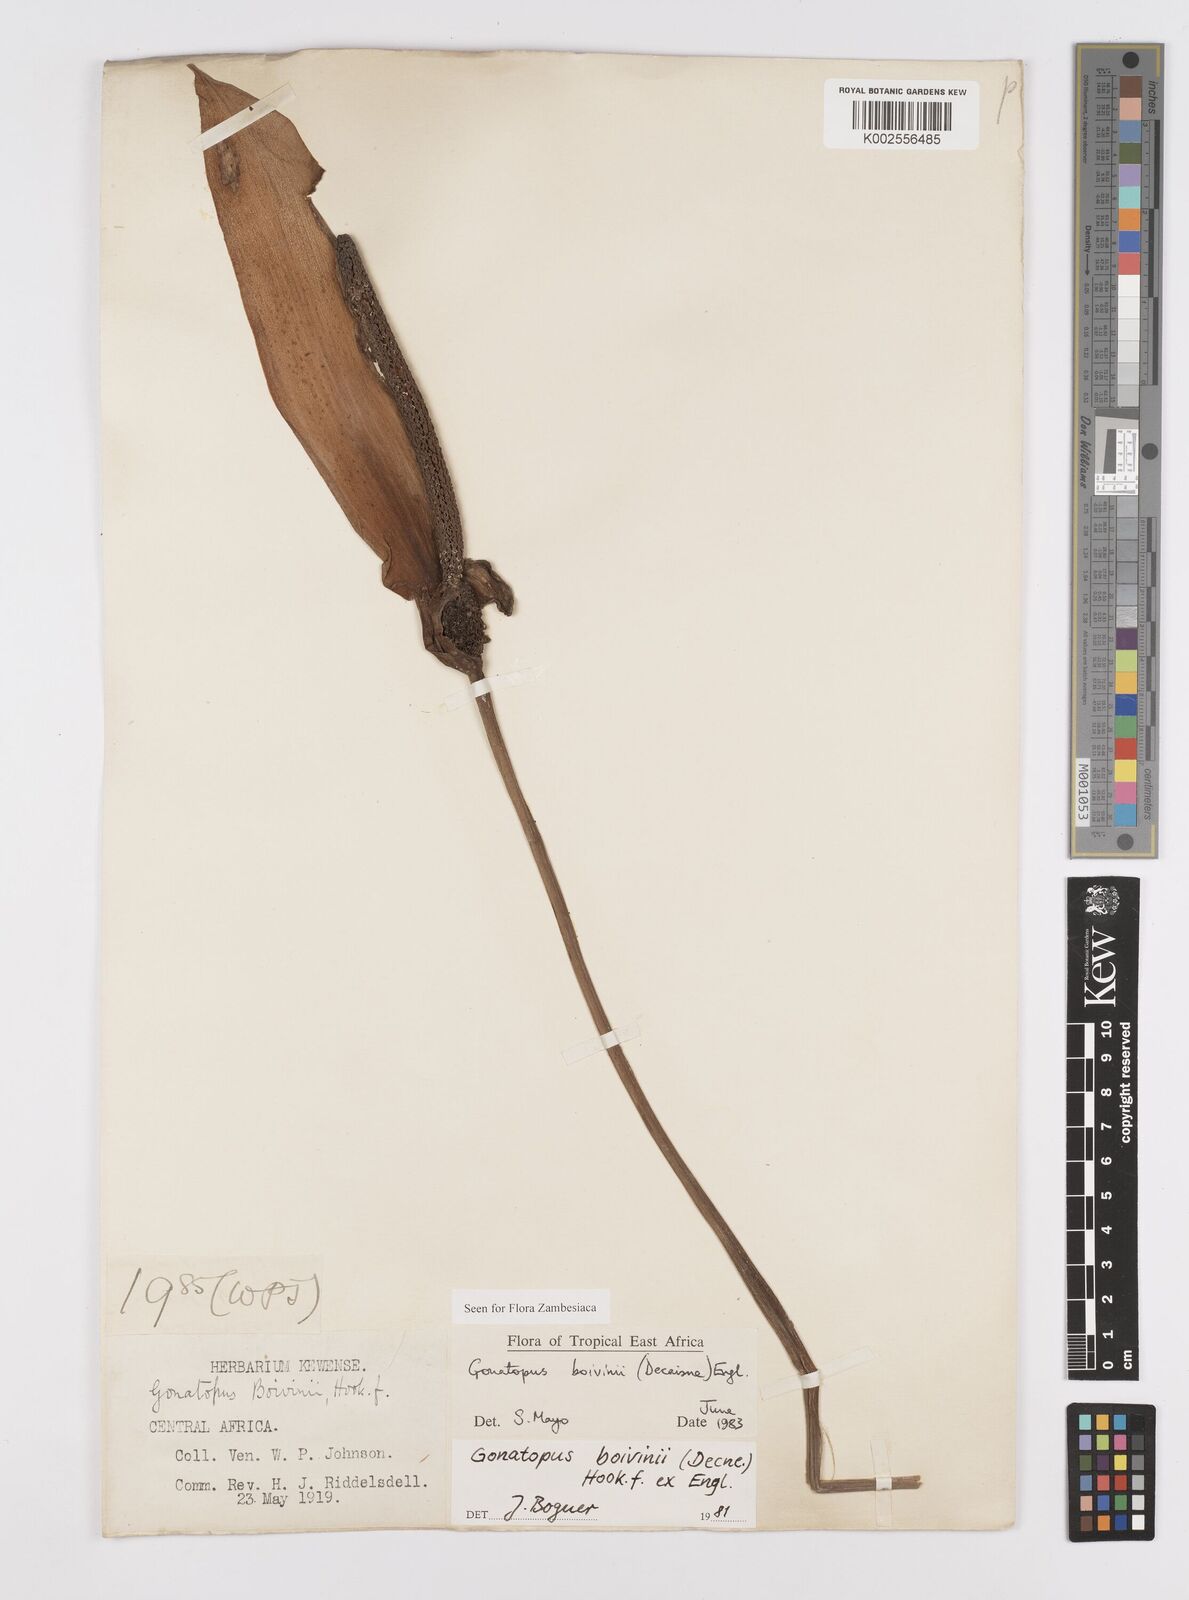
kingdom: Plantae
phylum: Tracheophyta
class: Liliopsida
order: Alismatales
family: Araceae
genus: Gonatopus
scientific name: Gonatopus boivinii
